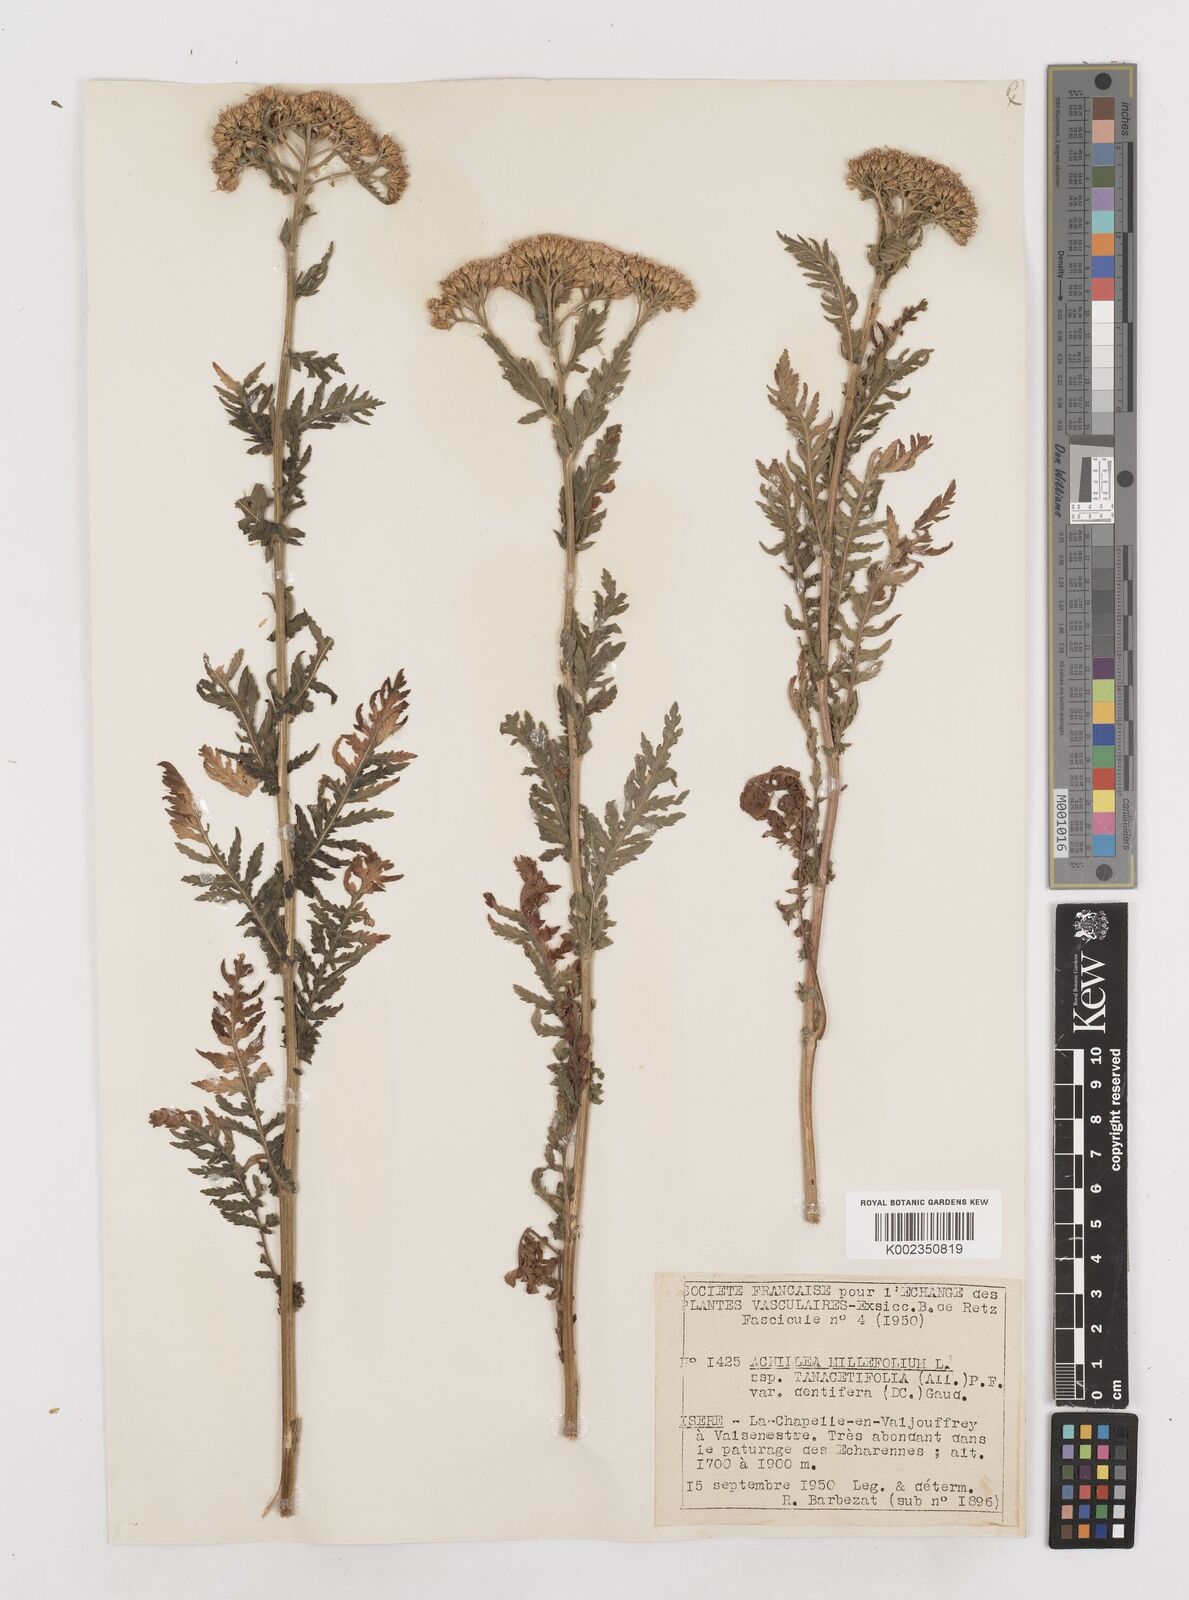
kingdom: Plantae
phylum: Tracheophyta
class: Magnoliopsida
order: Asterales
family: Asteraceae
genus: Achillea
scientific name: Achillea distans
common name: Tall yarrow
